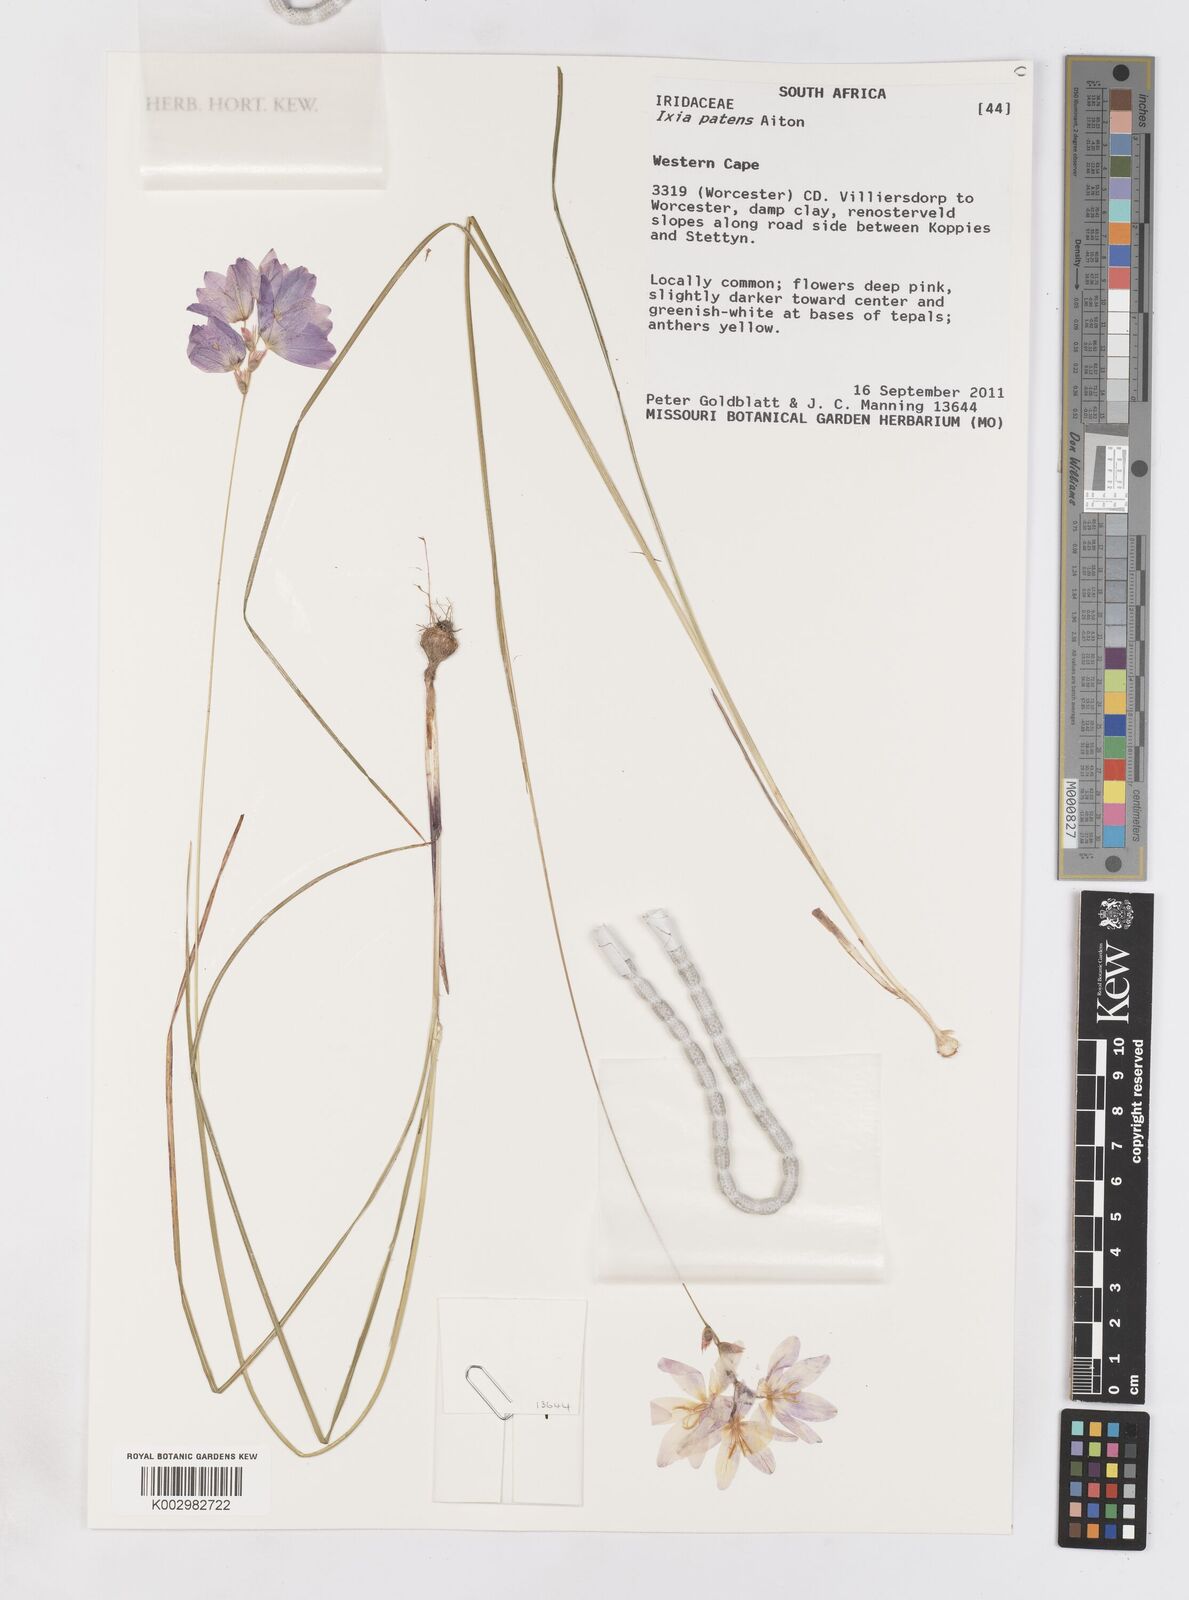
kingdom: Plantae
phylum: Tracheophyta
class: Liliopsida
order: Asparagales
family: Iridaceae
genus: Ixia
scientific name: Ixia patens
